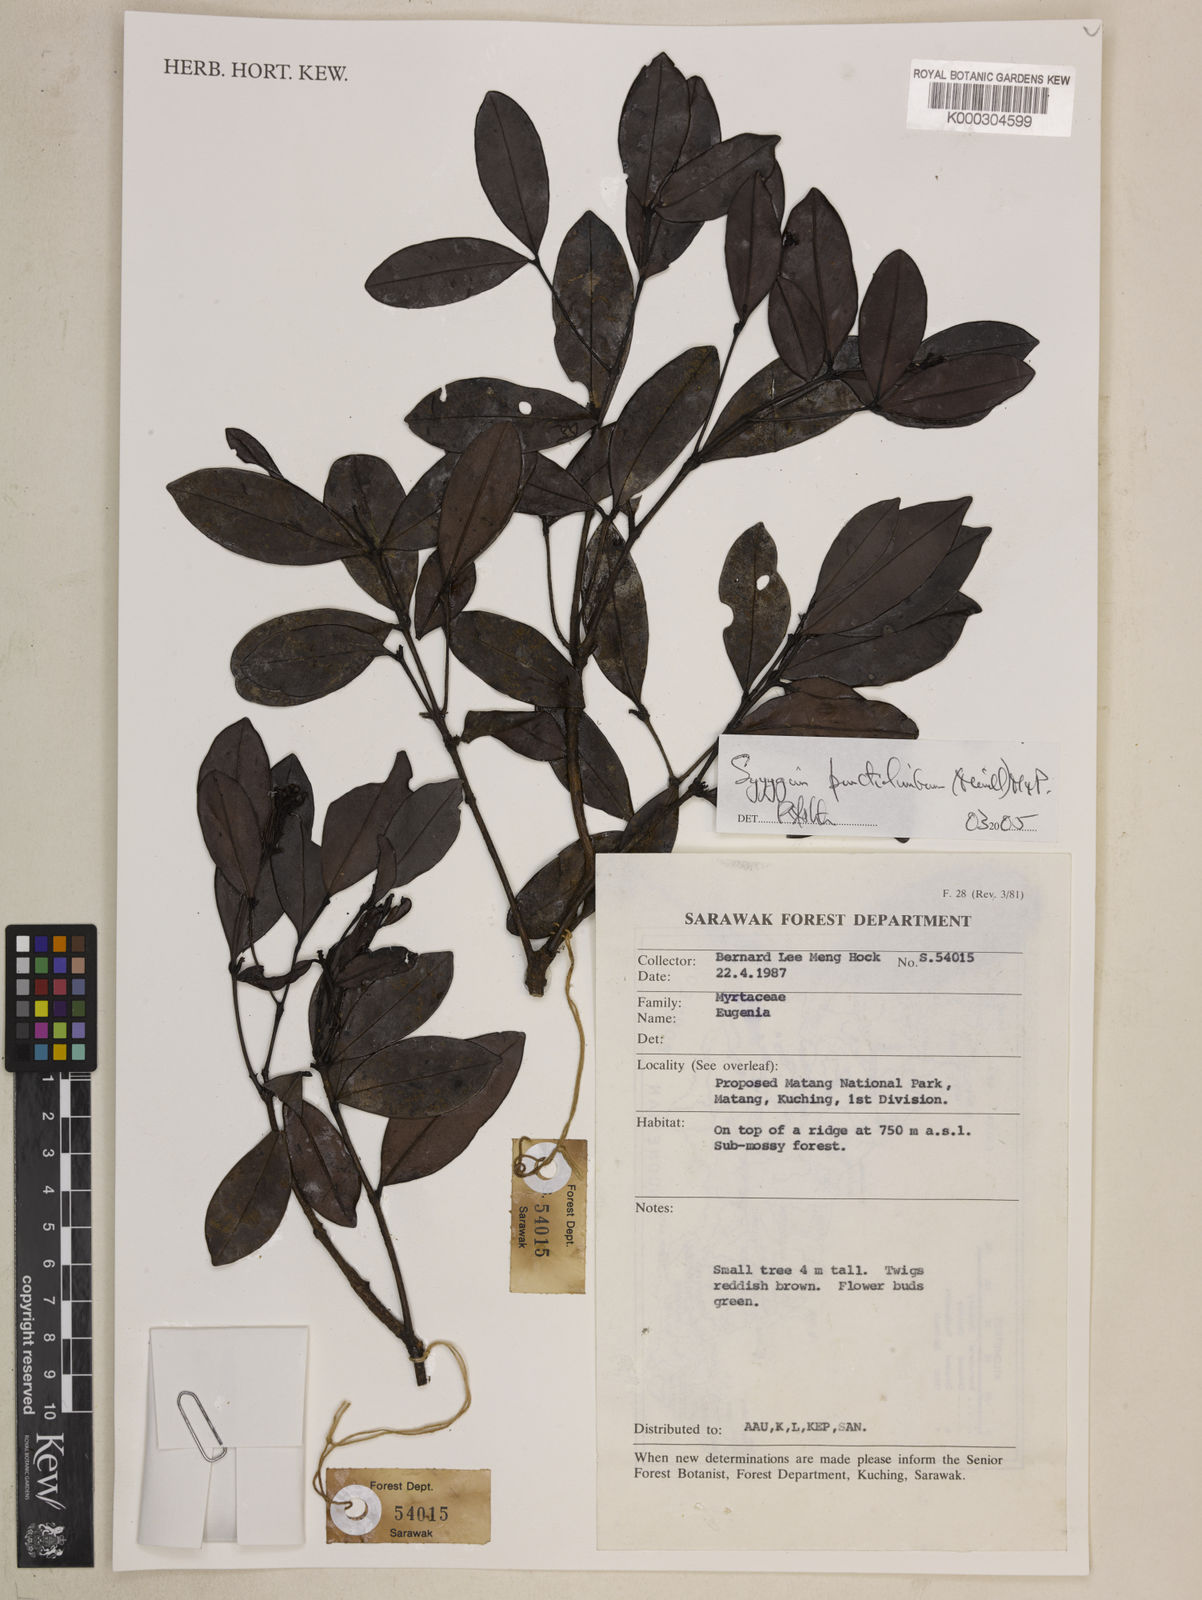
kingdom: Plantae
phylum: Tracheophyta
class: Magnoliopsida
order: Myrtales
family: Myrtaceae
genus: Syzygium
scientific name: Syzygium punctilimbum
